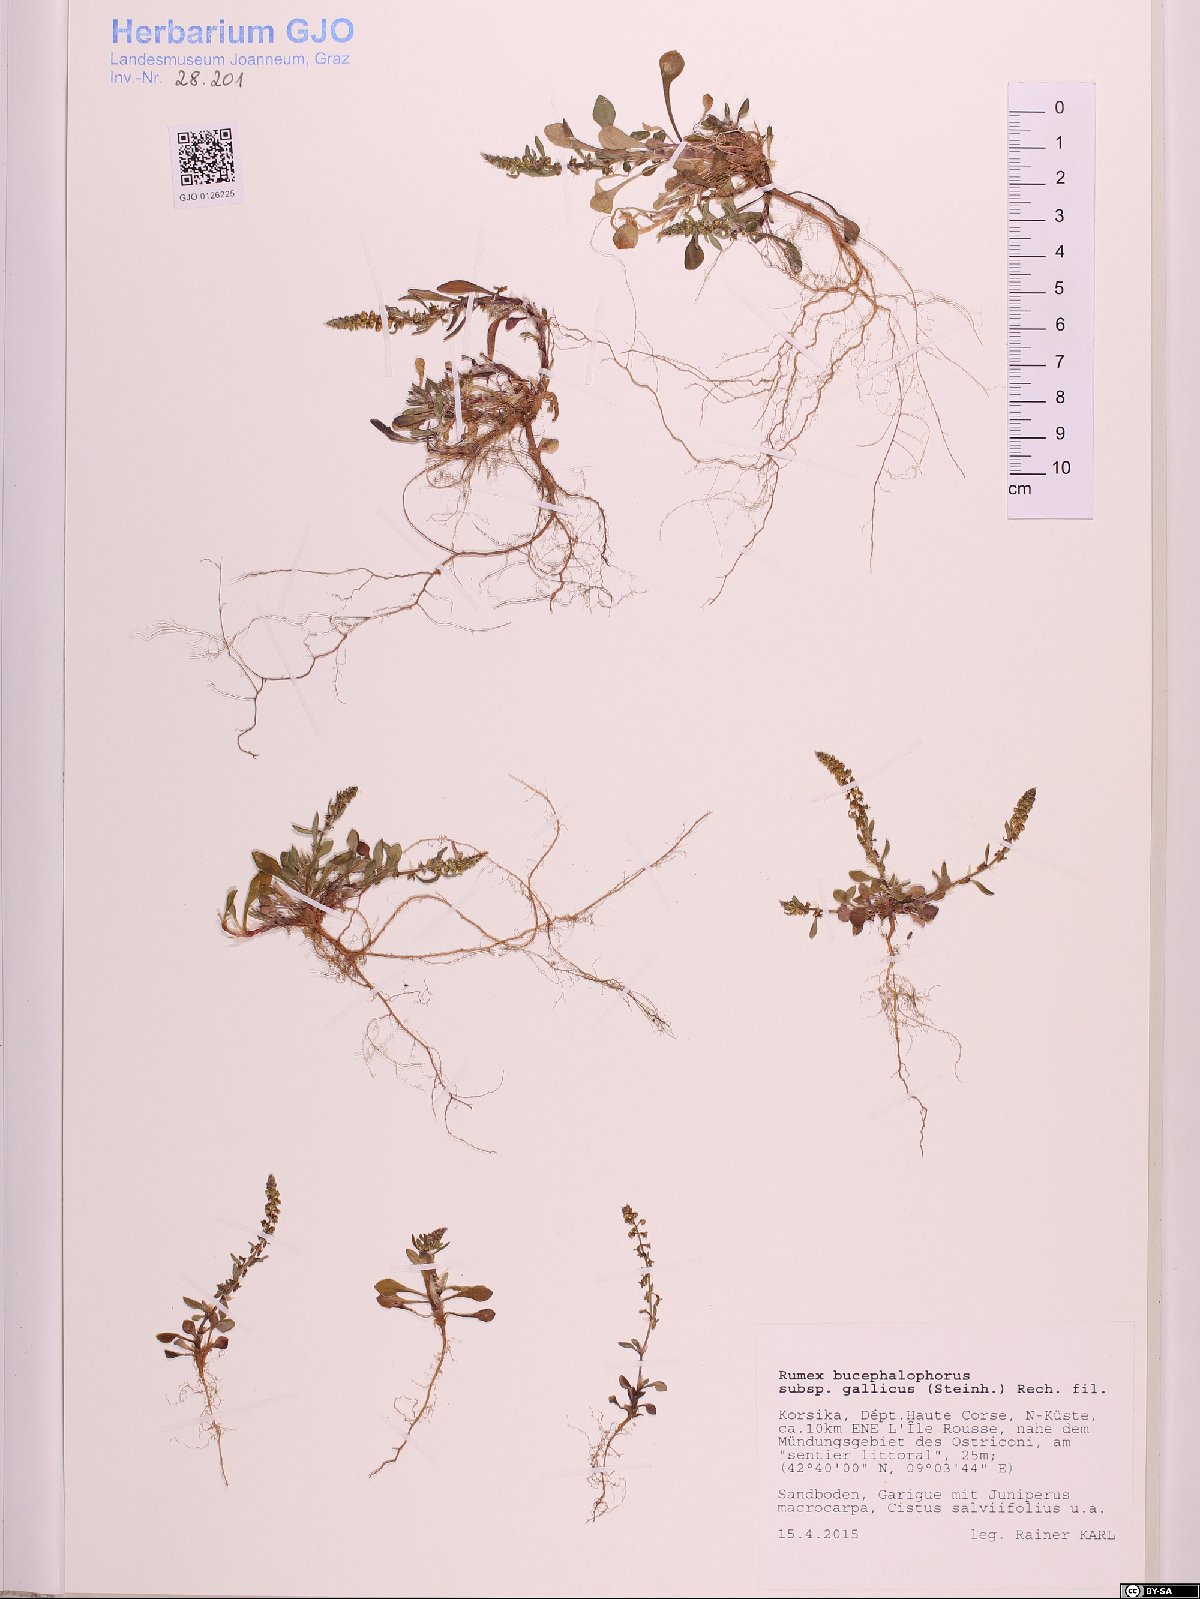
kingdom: Plantae
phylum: Tracheophyta
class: Magnoliopsida
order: Caryophyllales
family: Polygonaceae
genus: Rumex
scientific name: Rumex bucephalophorus
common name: Red dock
